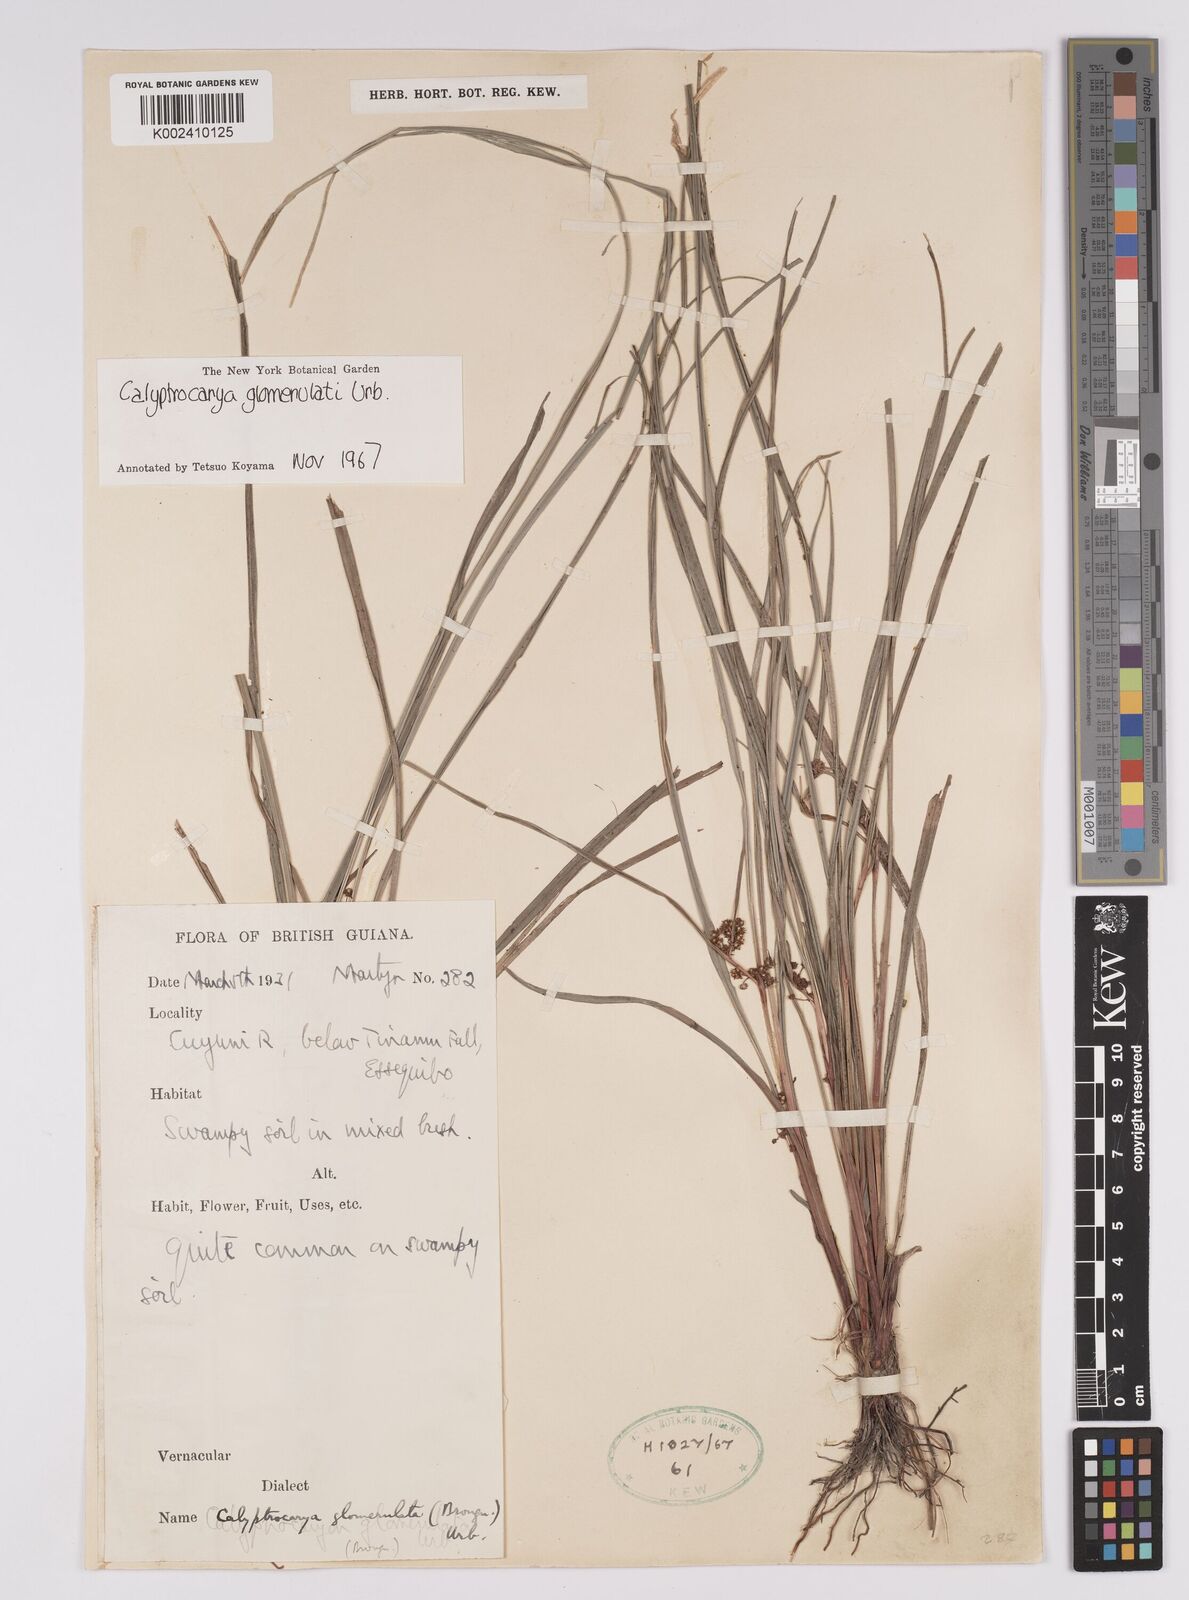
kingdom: Plantae
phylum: Tracheophyta
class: Liliopsida
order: Poales
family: Cyperaceae
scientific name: Cyperaceae
